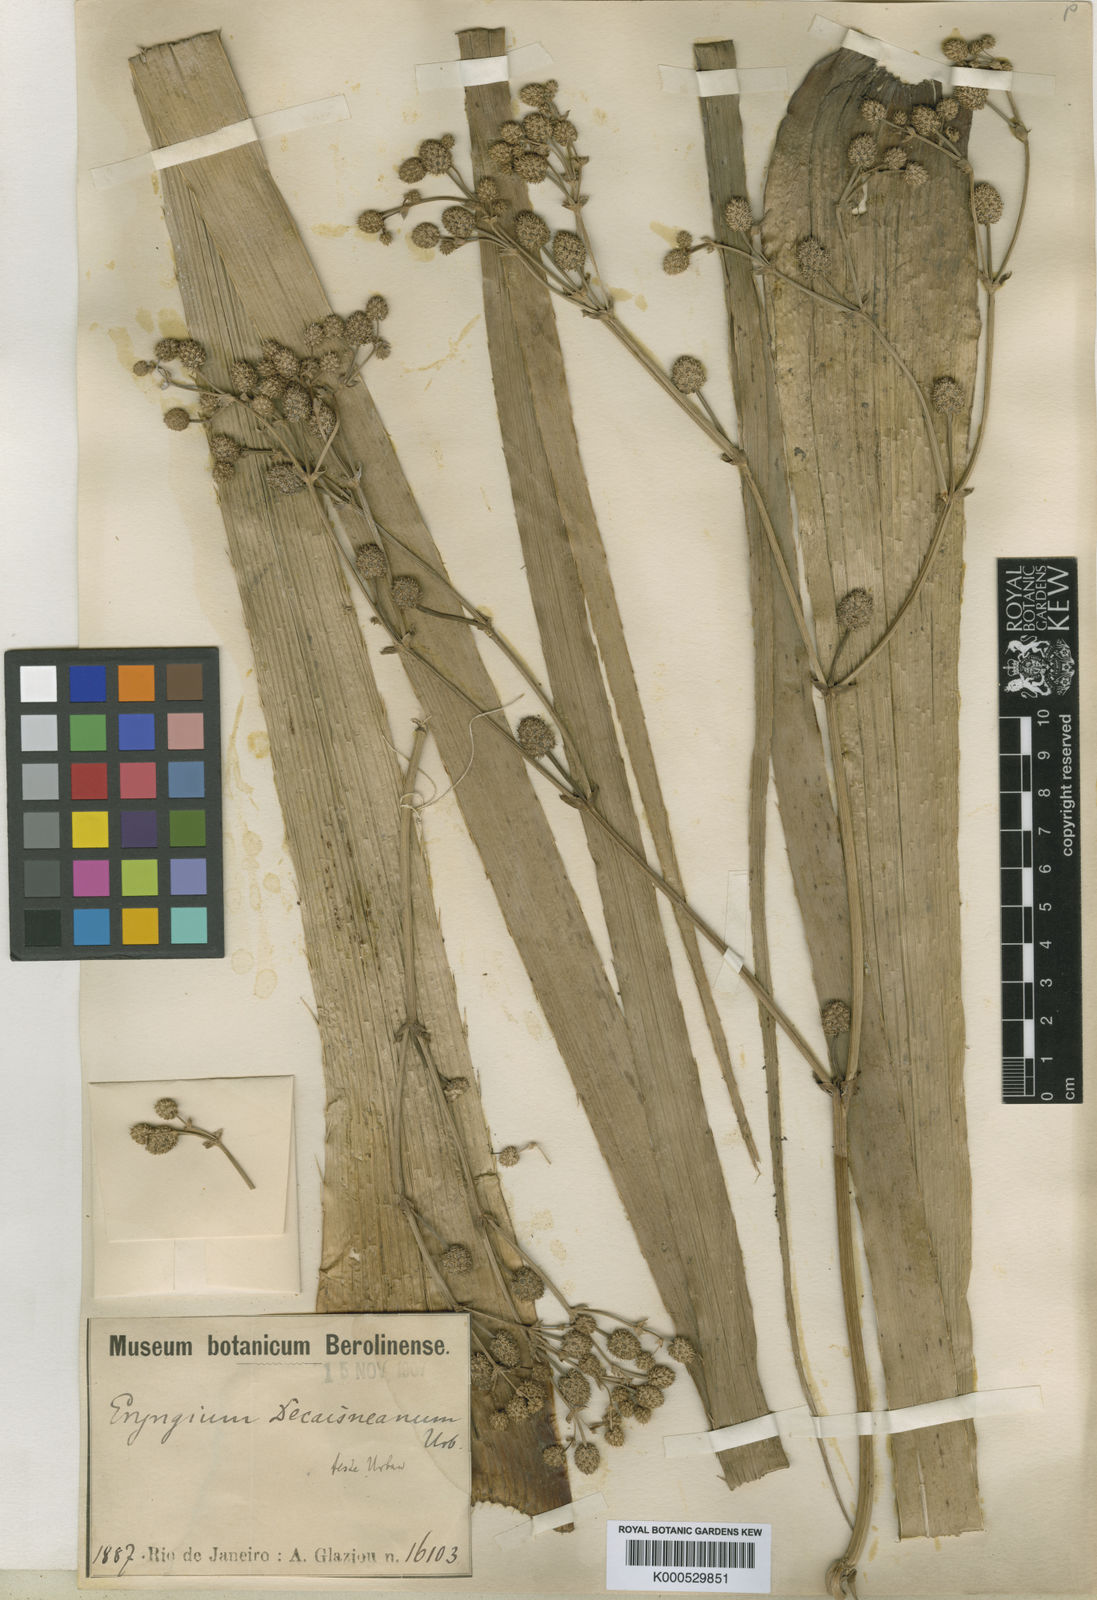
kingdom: Plantae
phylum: Tracheophyta
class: Magnoliopsida
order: Apiales
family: Apiaceae
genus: Eryngium
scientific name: Eryngium pandanifolium
